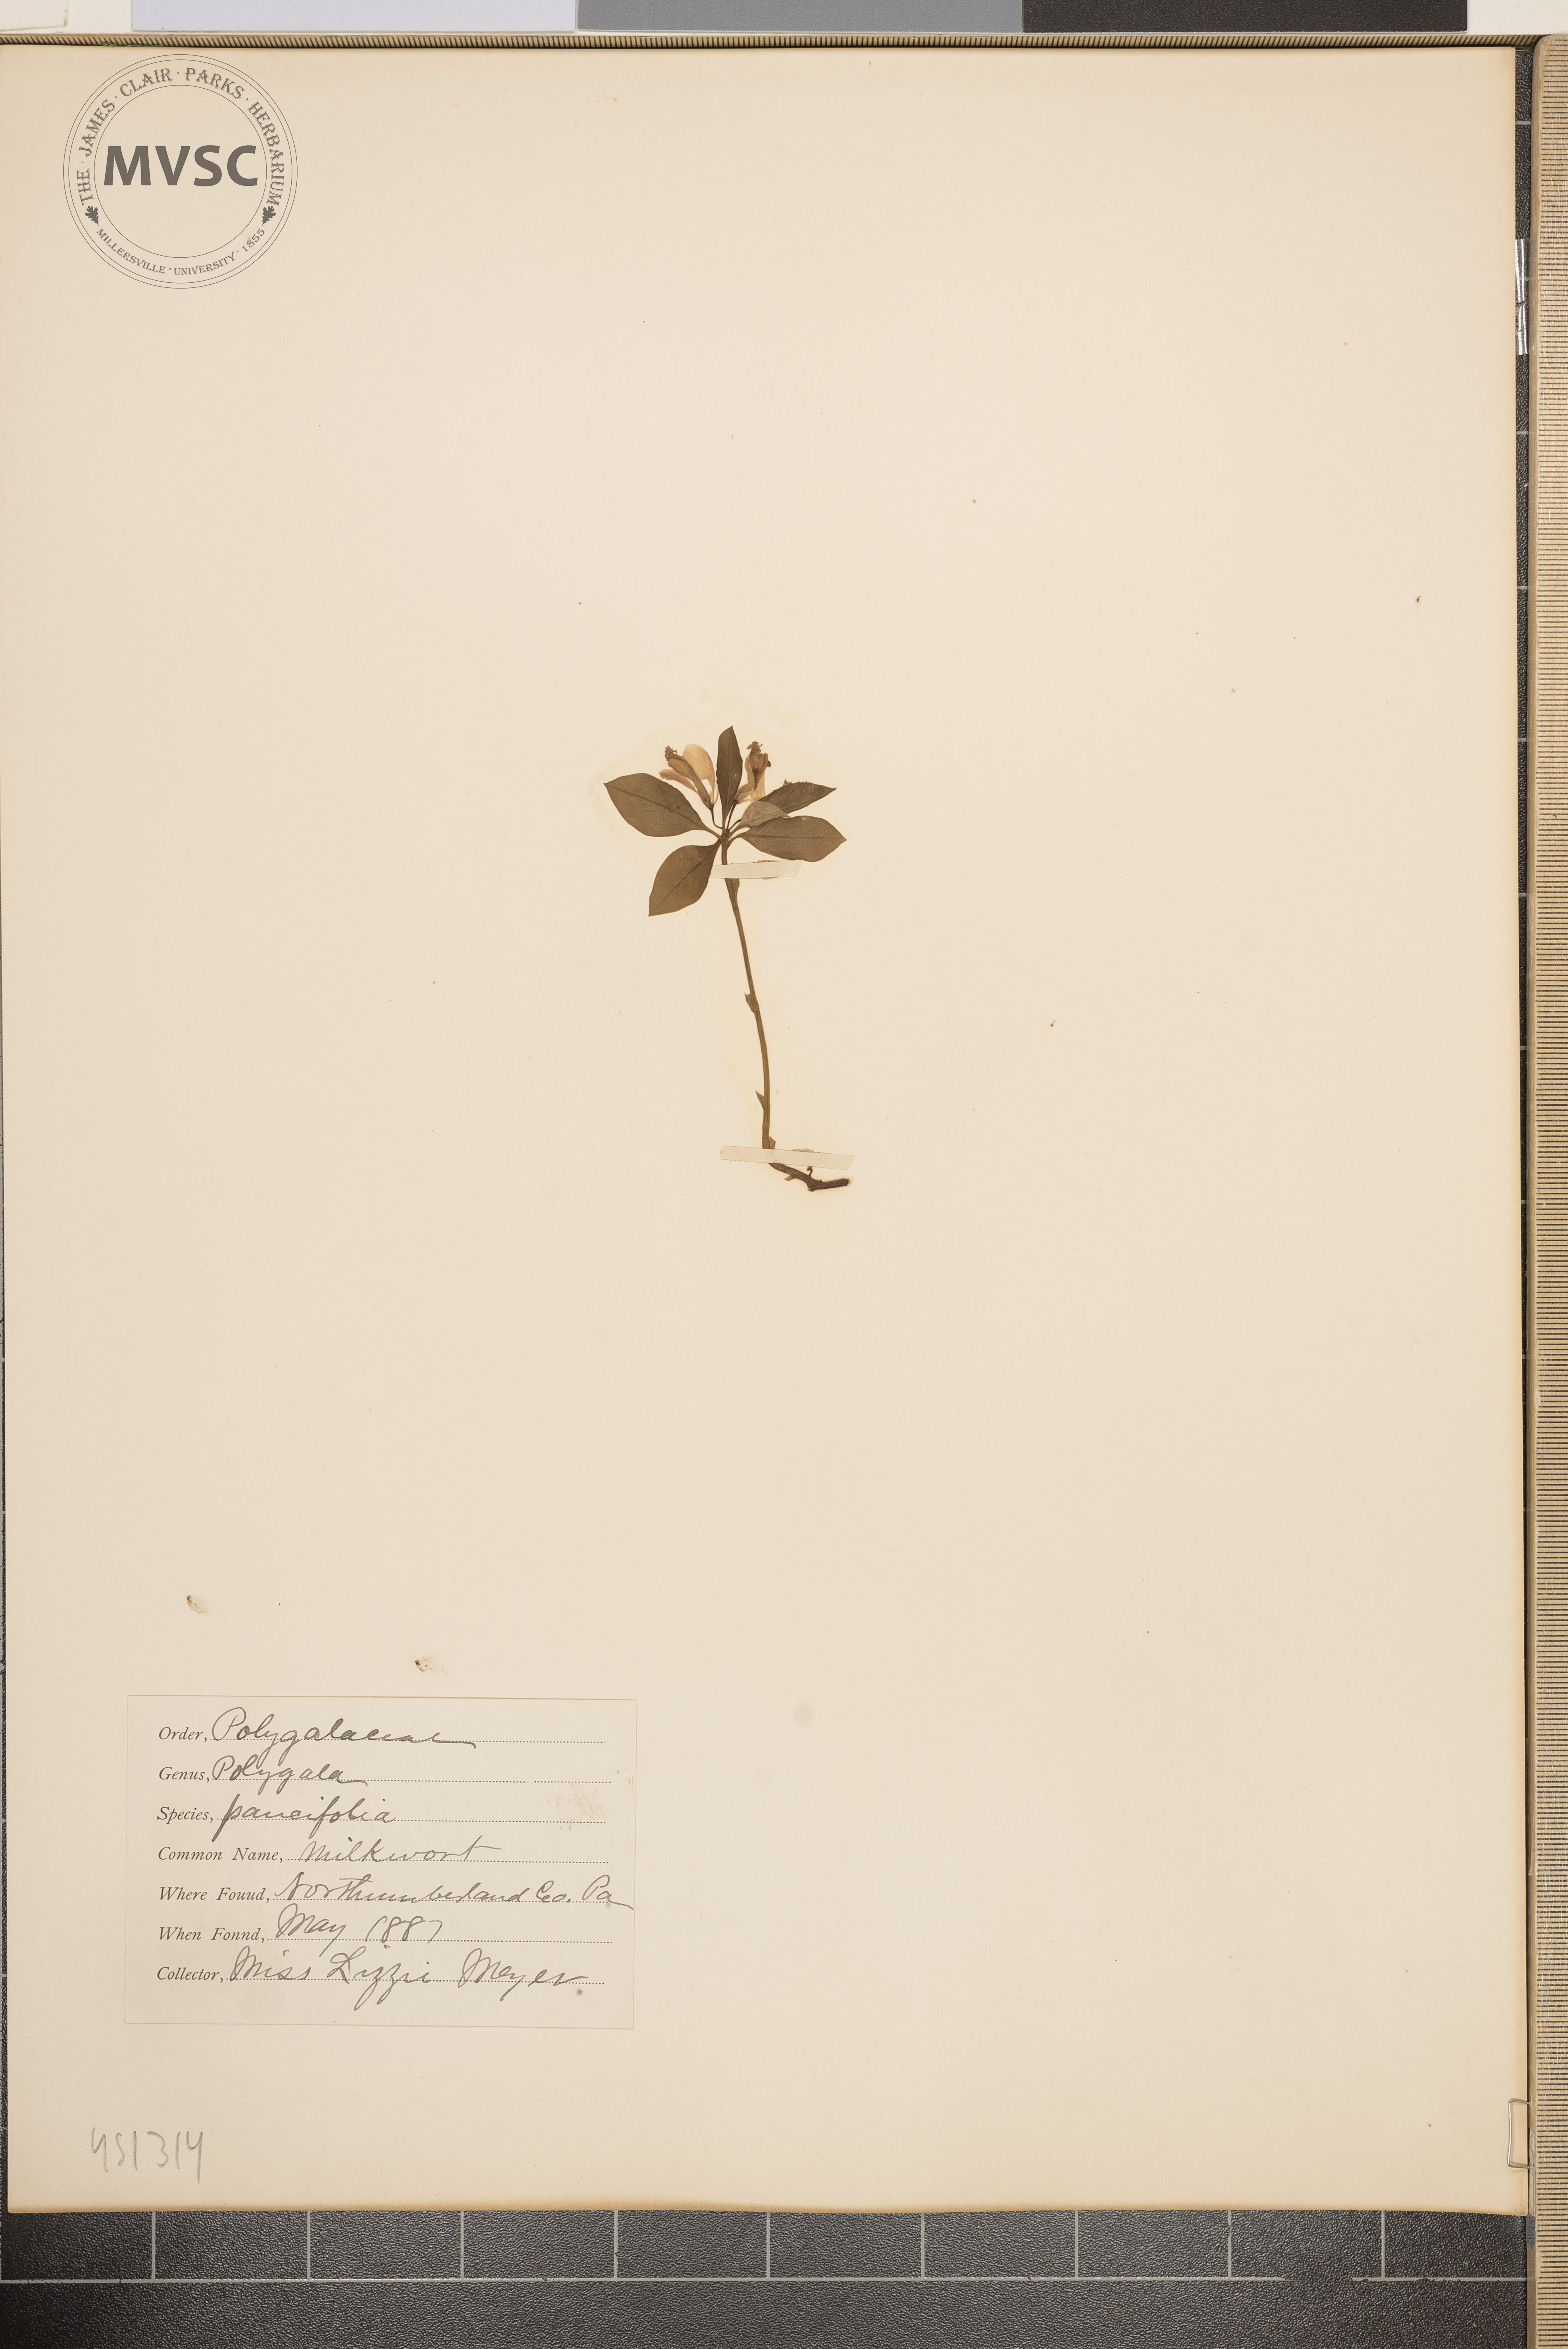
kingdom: Plantae
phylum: Tracheophyta
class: Magnoliopsida
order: Fabales
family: Polygalaceae
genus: Polygaloides
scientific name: Polygaloides paucifolia
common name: Milkwort
